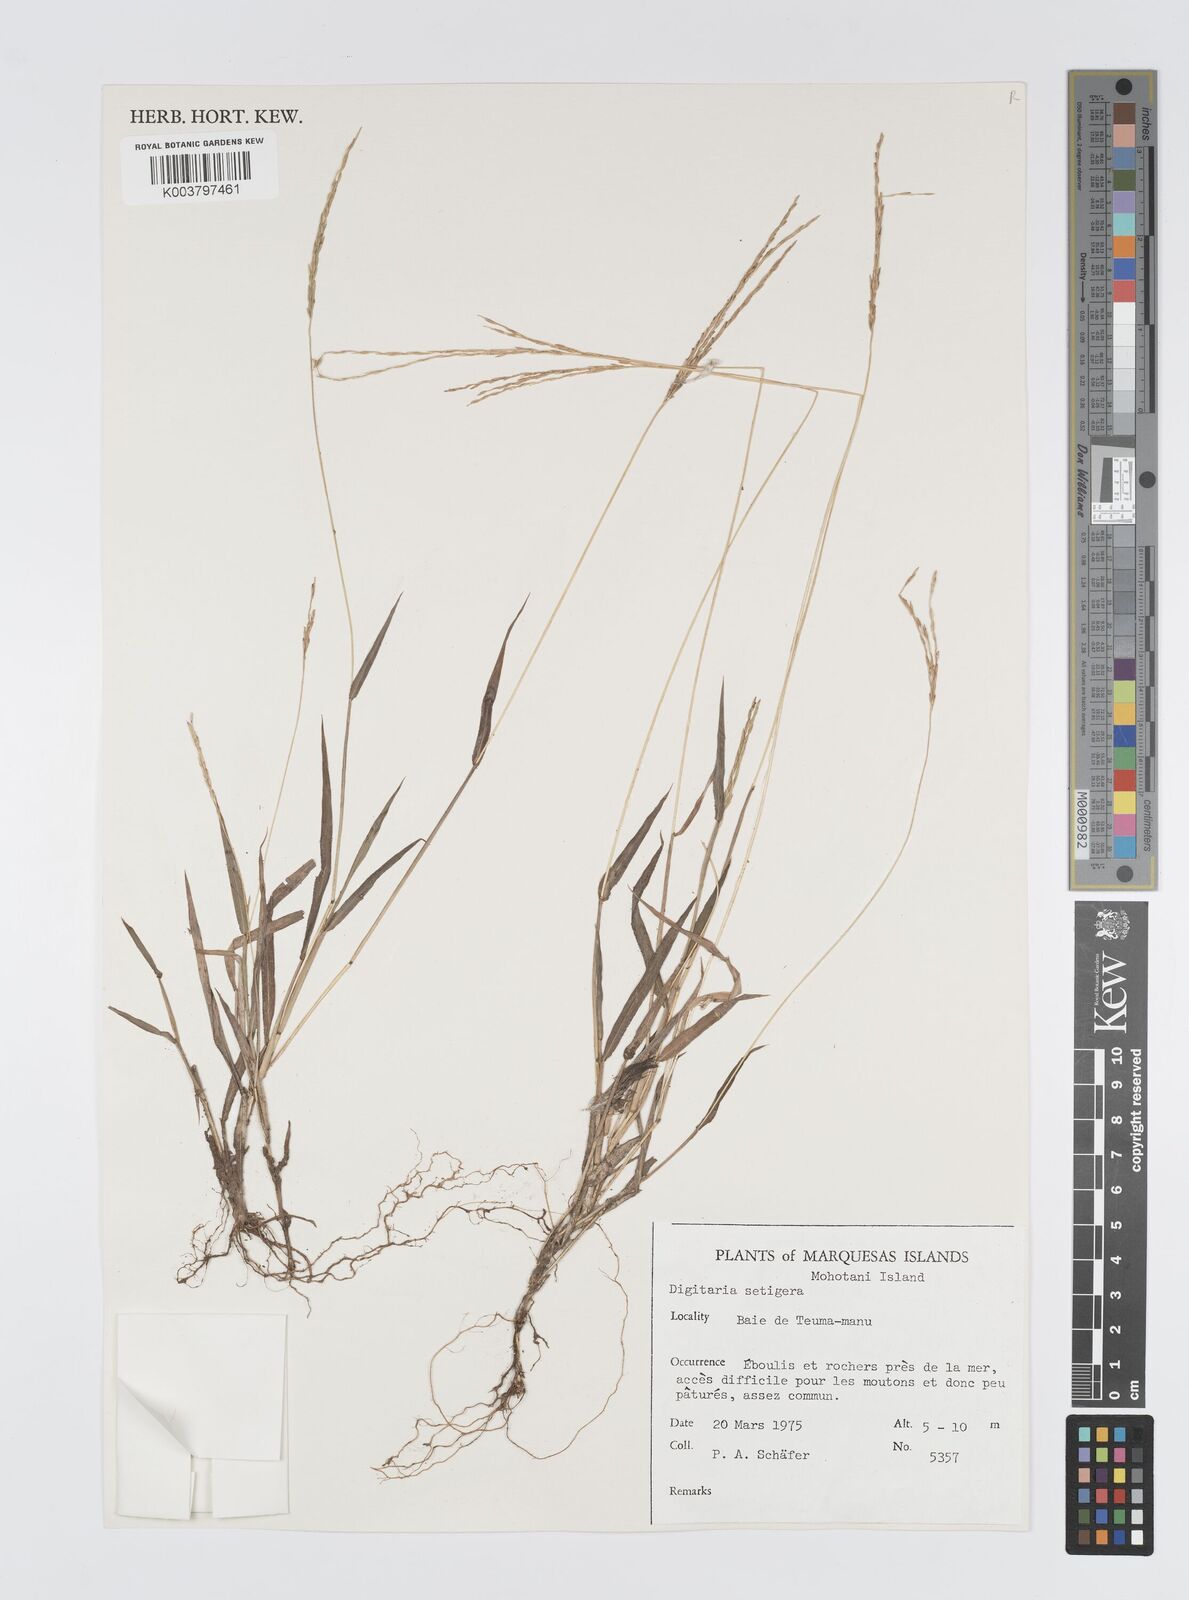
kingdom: Plantae
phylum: Tracheophyta
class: Liliopsida
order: Poales
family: Poaceae
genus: Digitaria
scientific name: Digitaria setigera
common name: East indian crabgrass
